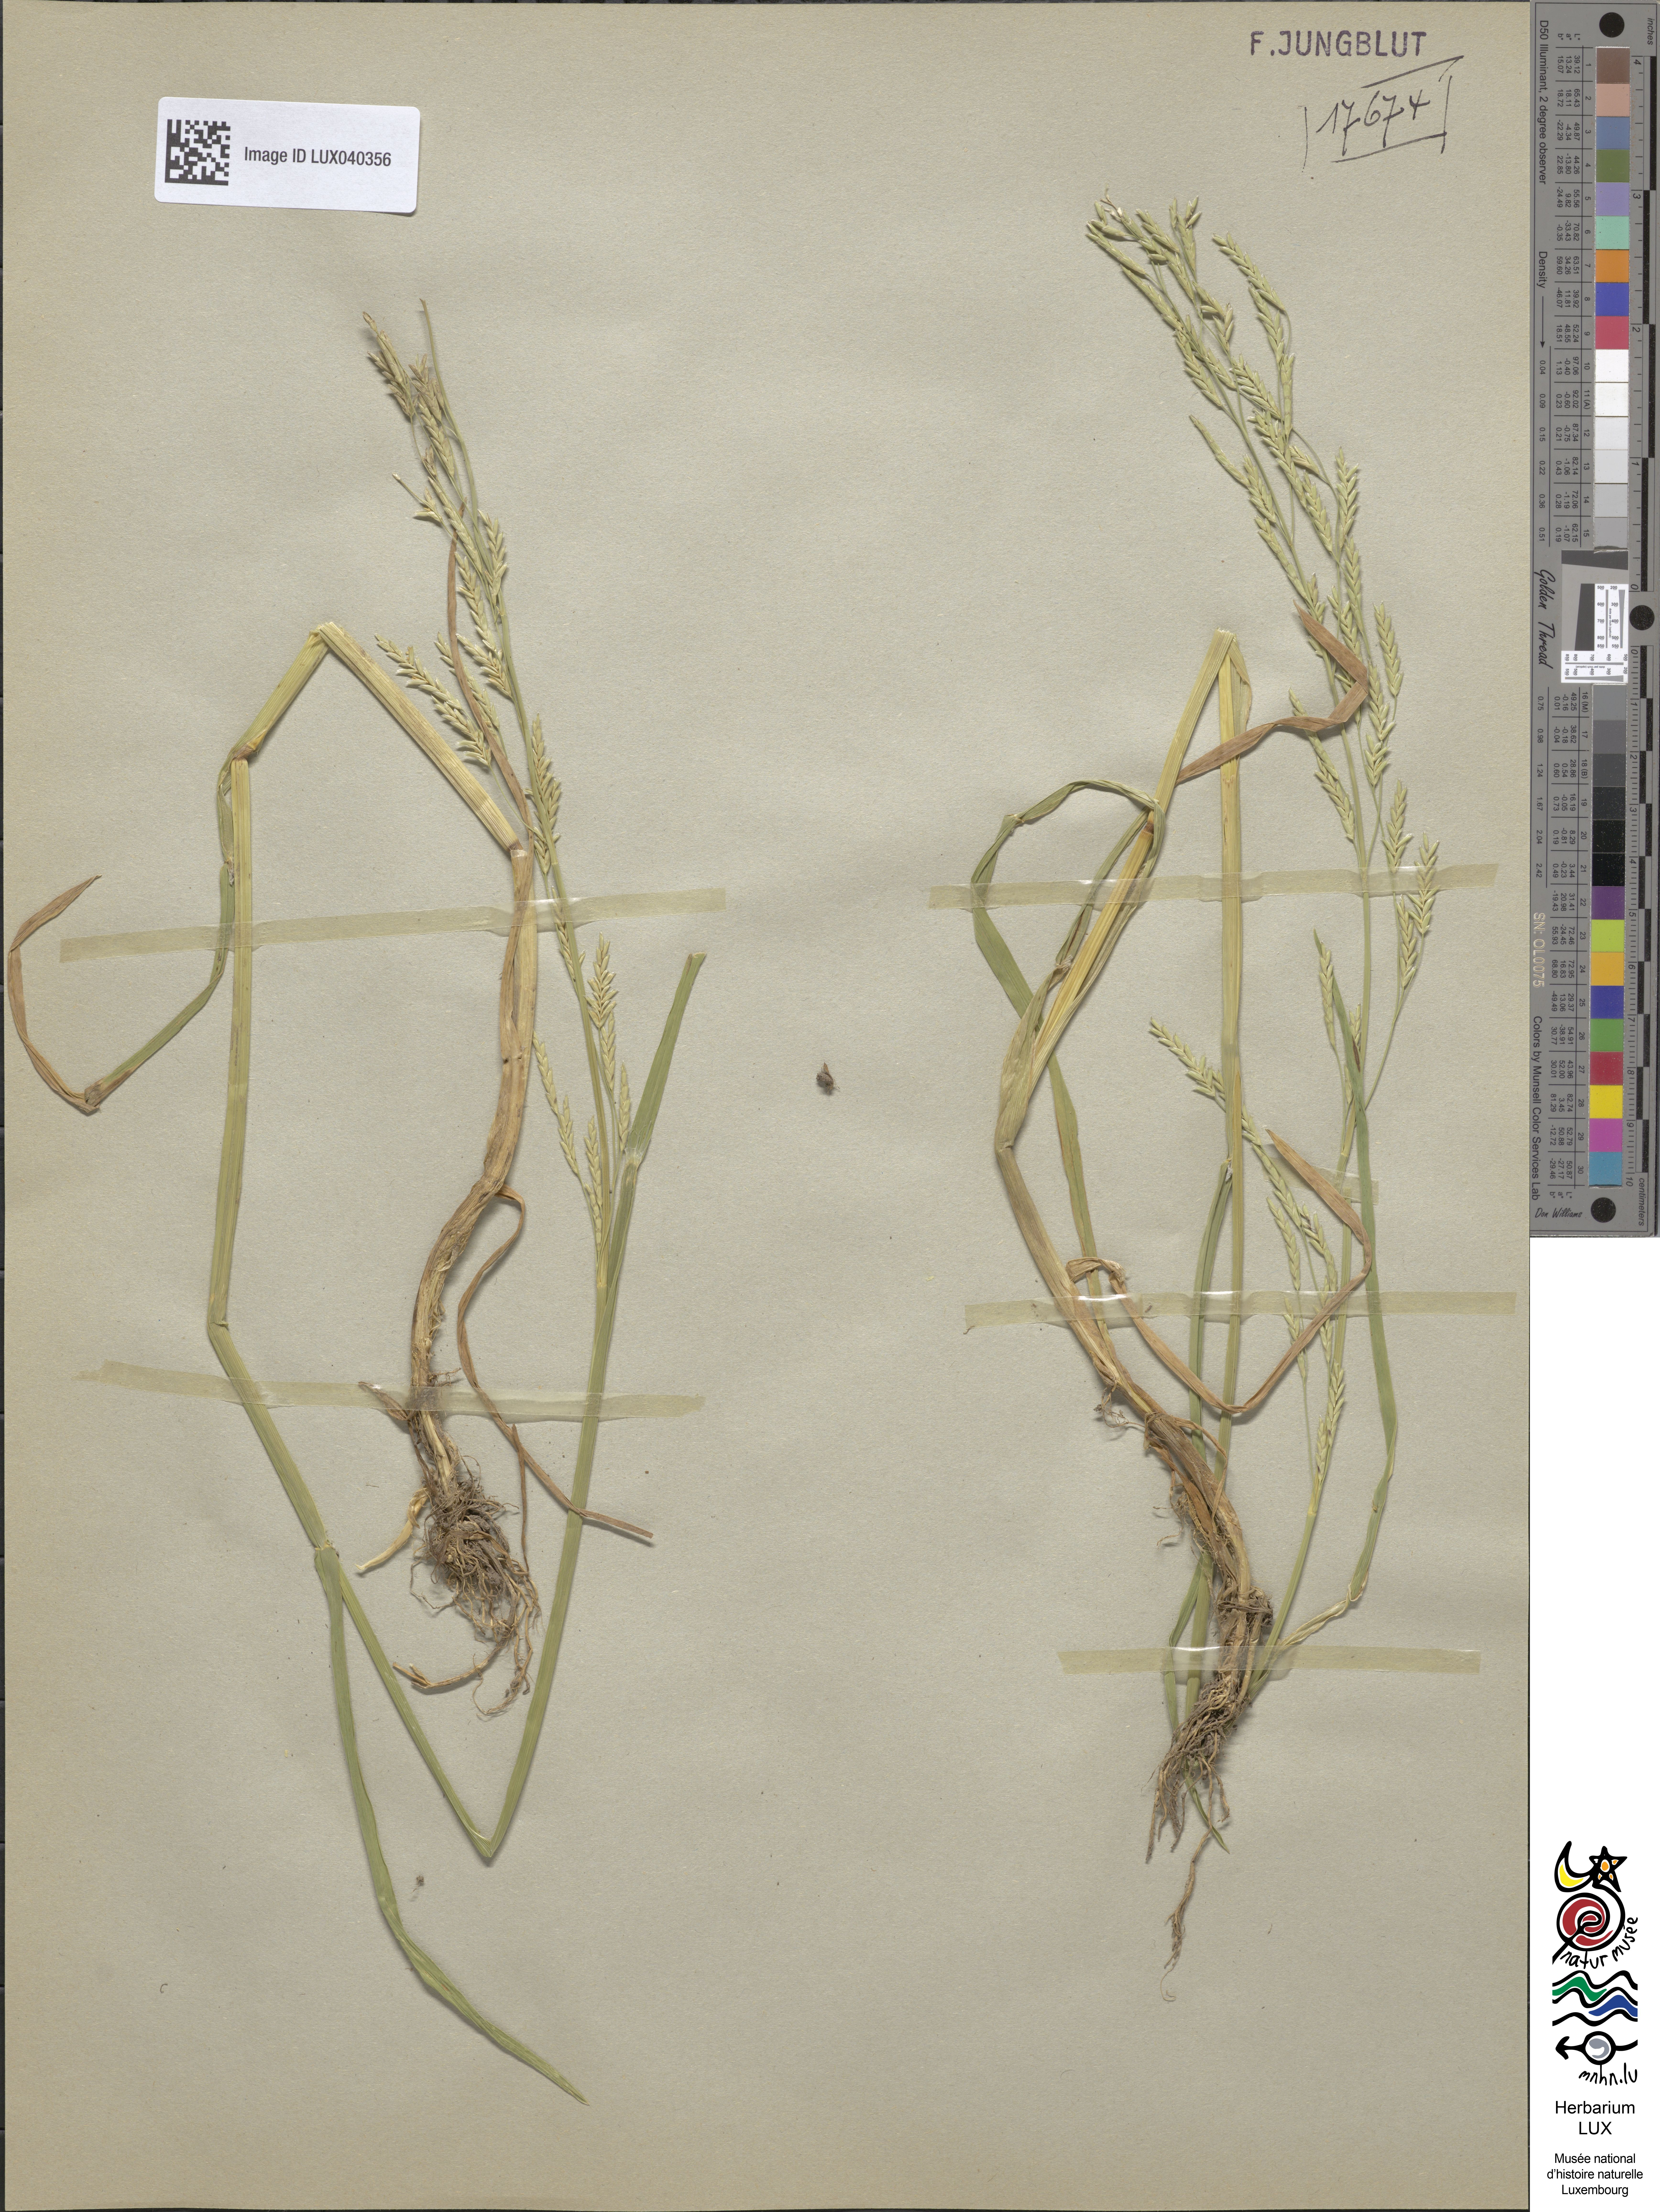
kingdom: Plantae
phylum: Tracheophyta
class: Liliopsida
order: Poales
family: Poaceae
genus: Glyceria
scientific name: Glyceria notata
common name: Plicate sweet-grass
